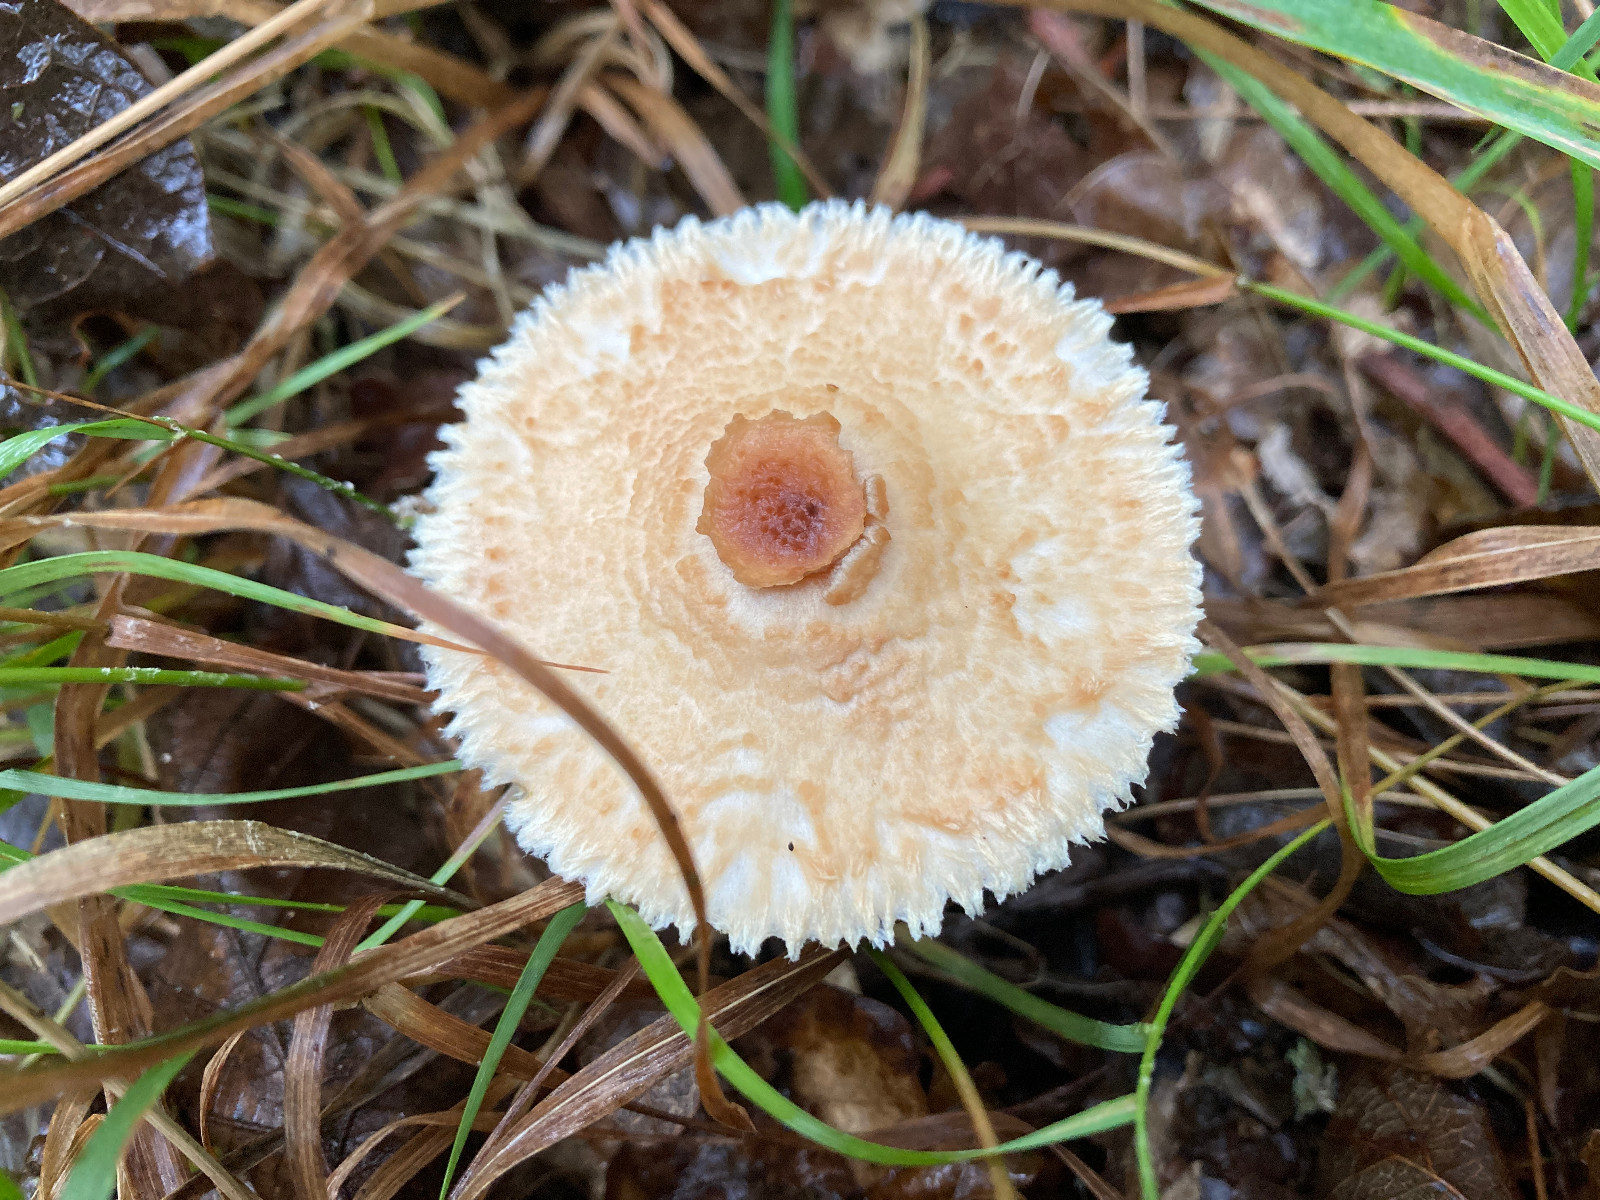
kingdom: Fungi
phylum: Basidiomycota
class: Agaricomycetes
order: Agaricales
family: Agaricaceae
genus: Lepiota
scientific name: Lepiota magnispora
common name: gulfnugget parasolhat
